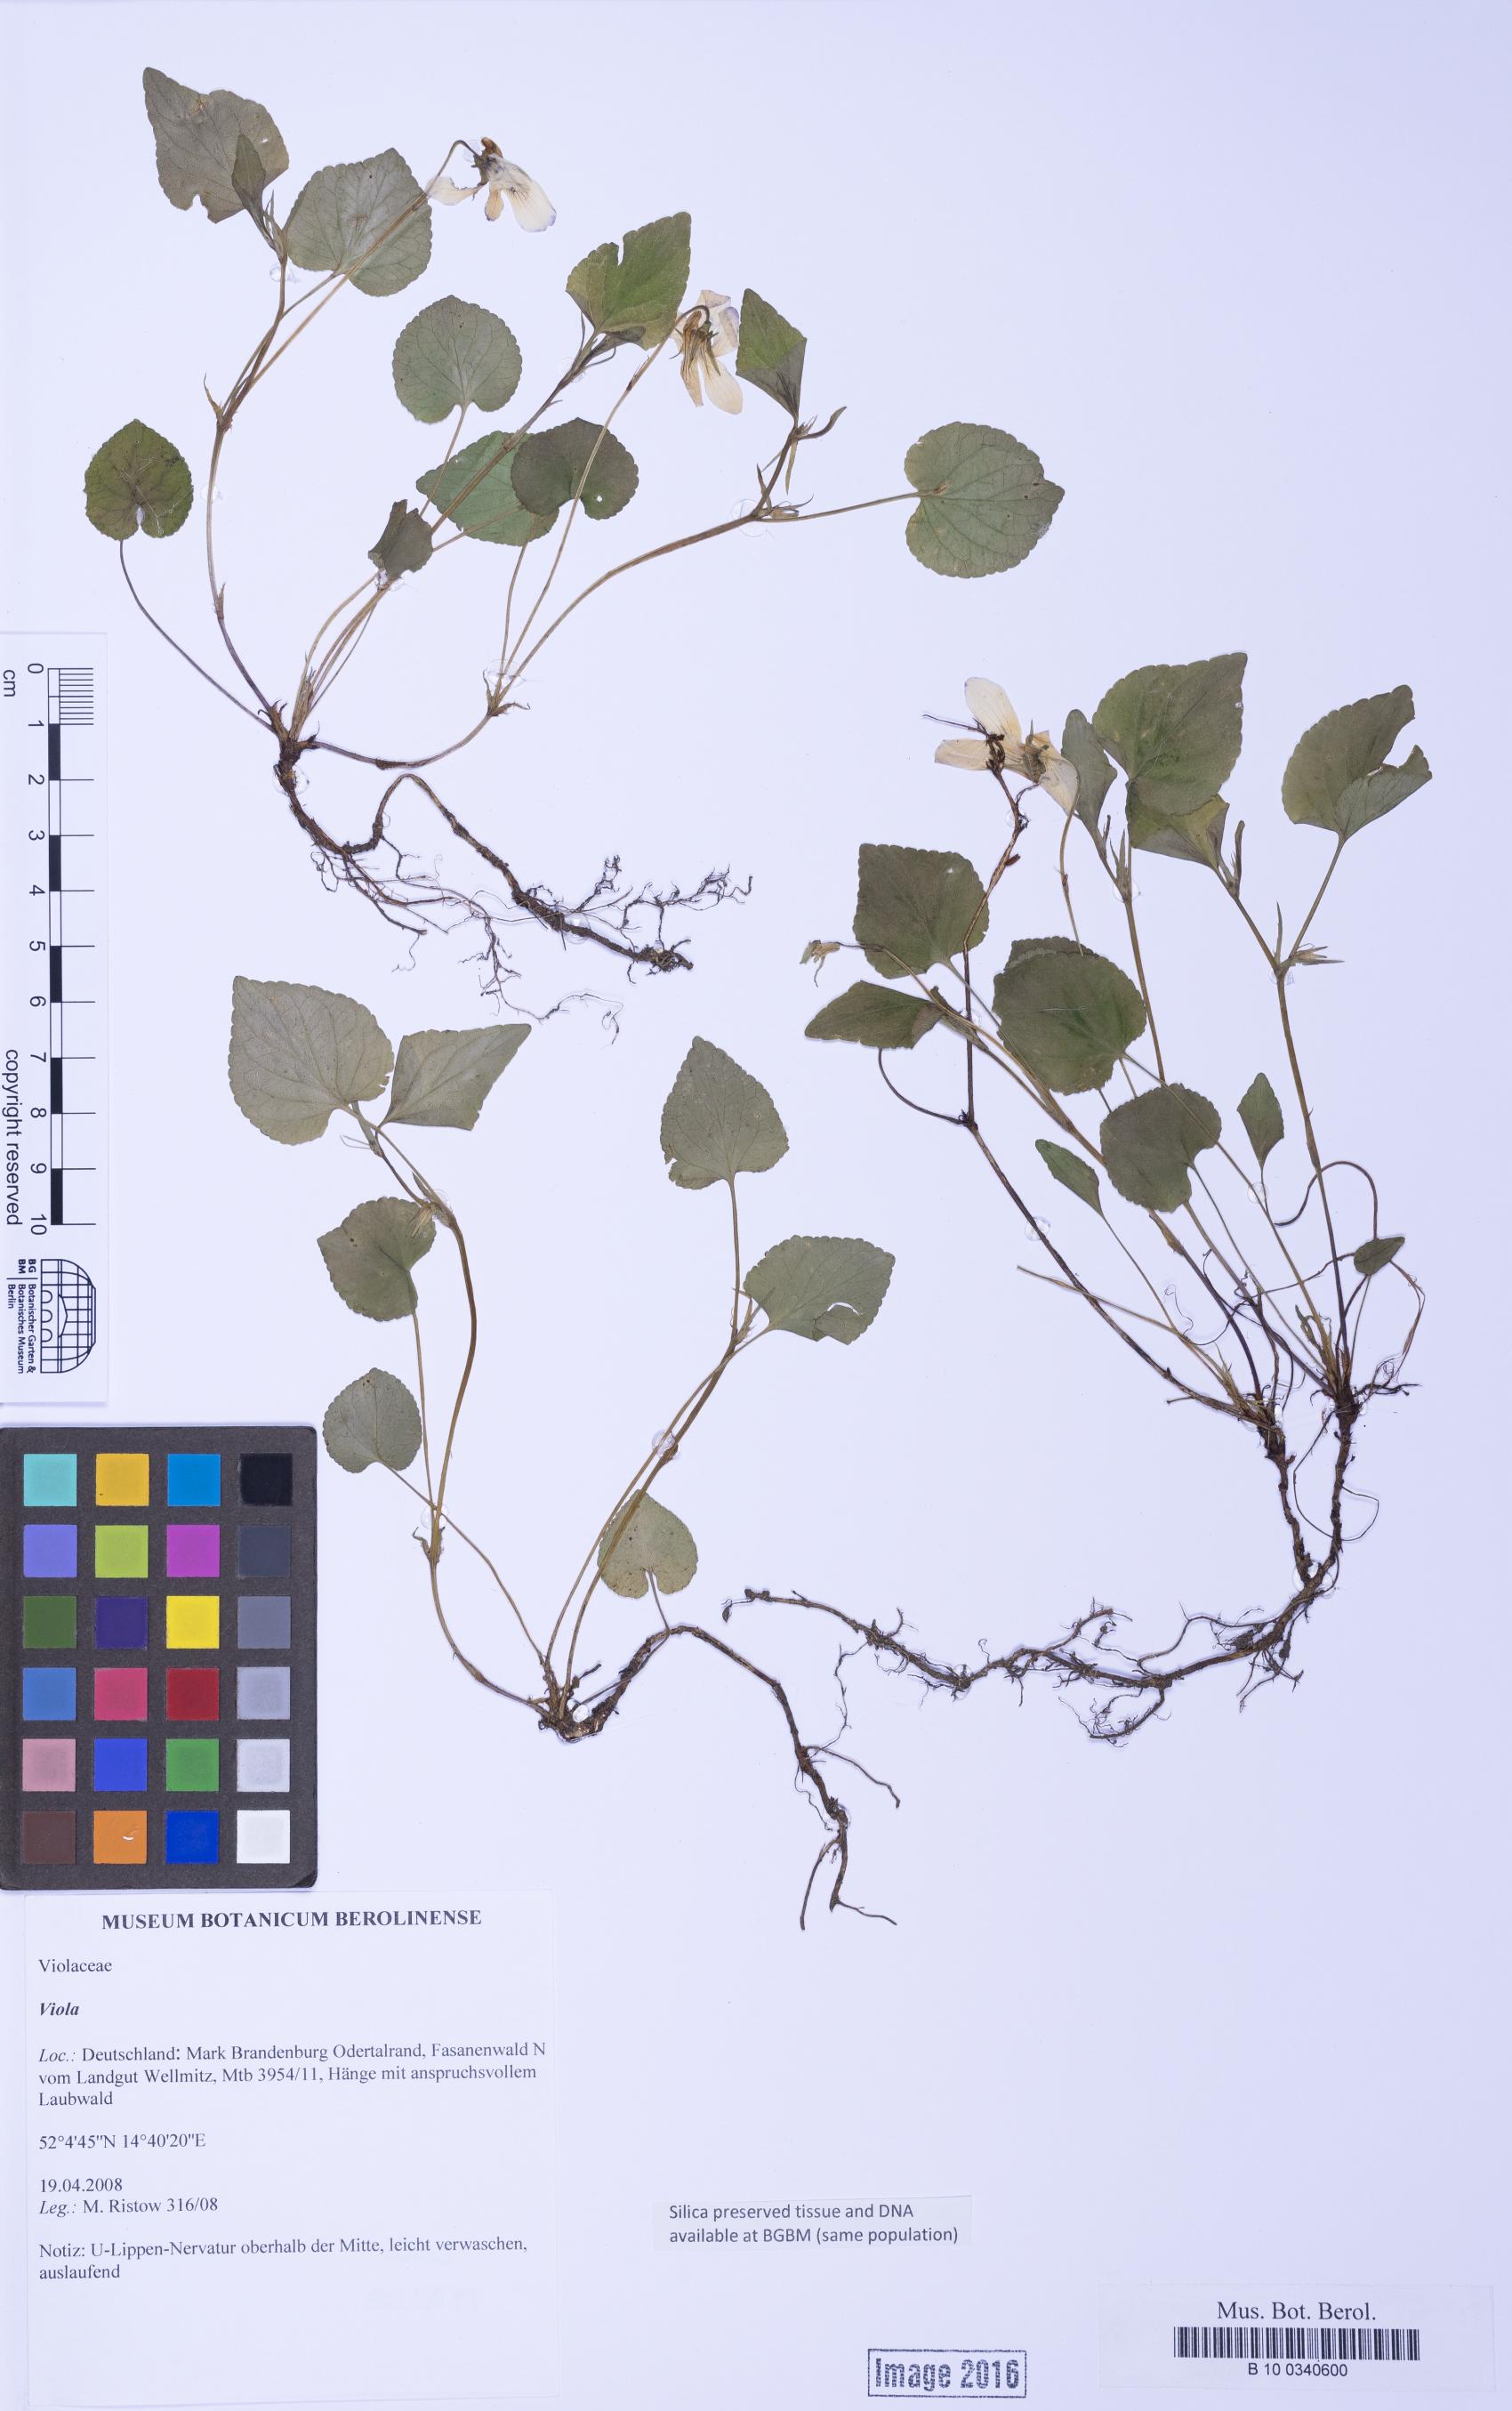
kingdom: Plantae
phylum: Tracheophyta
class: Magnoliopsida
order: Malpighiales
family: Violaceae
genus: Viola
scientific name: Viola
